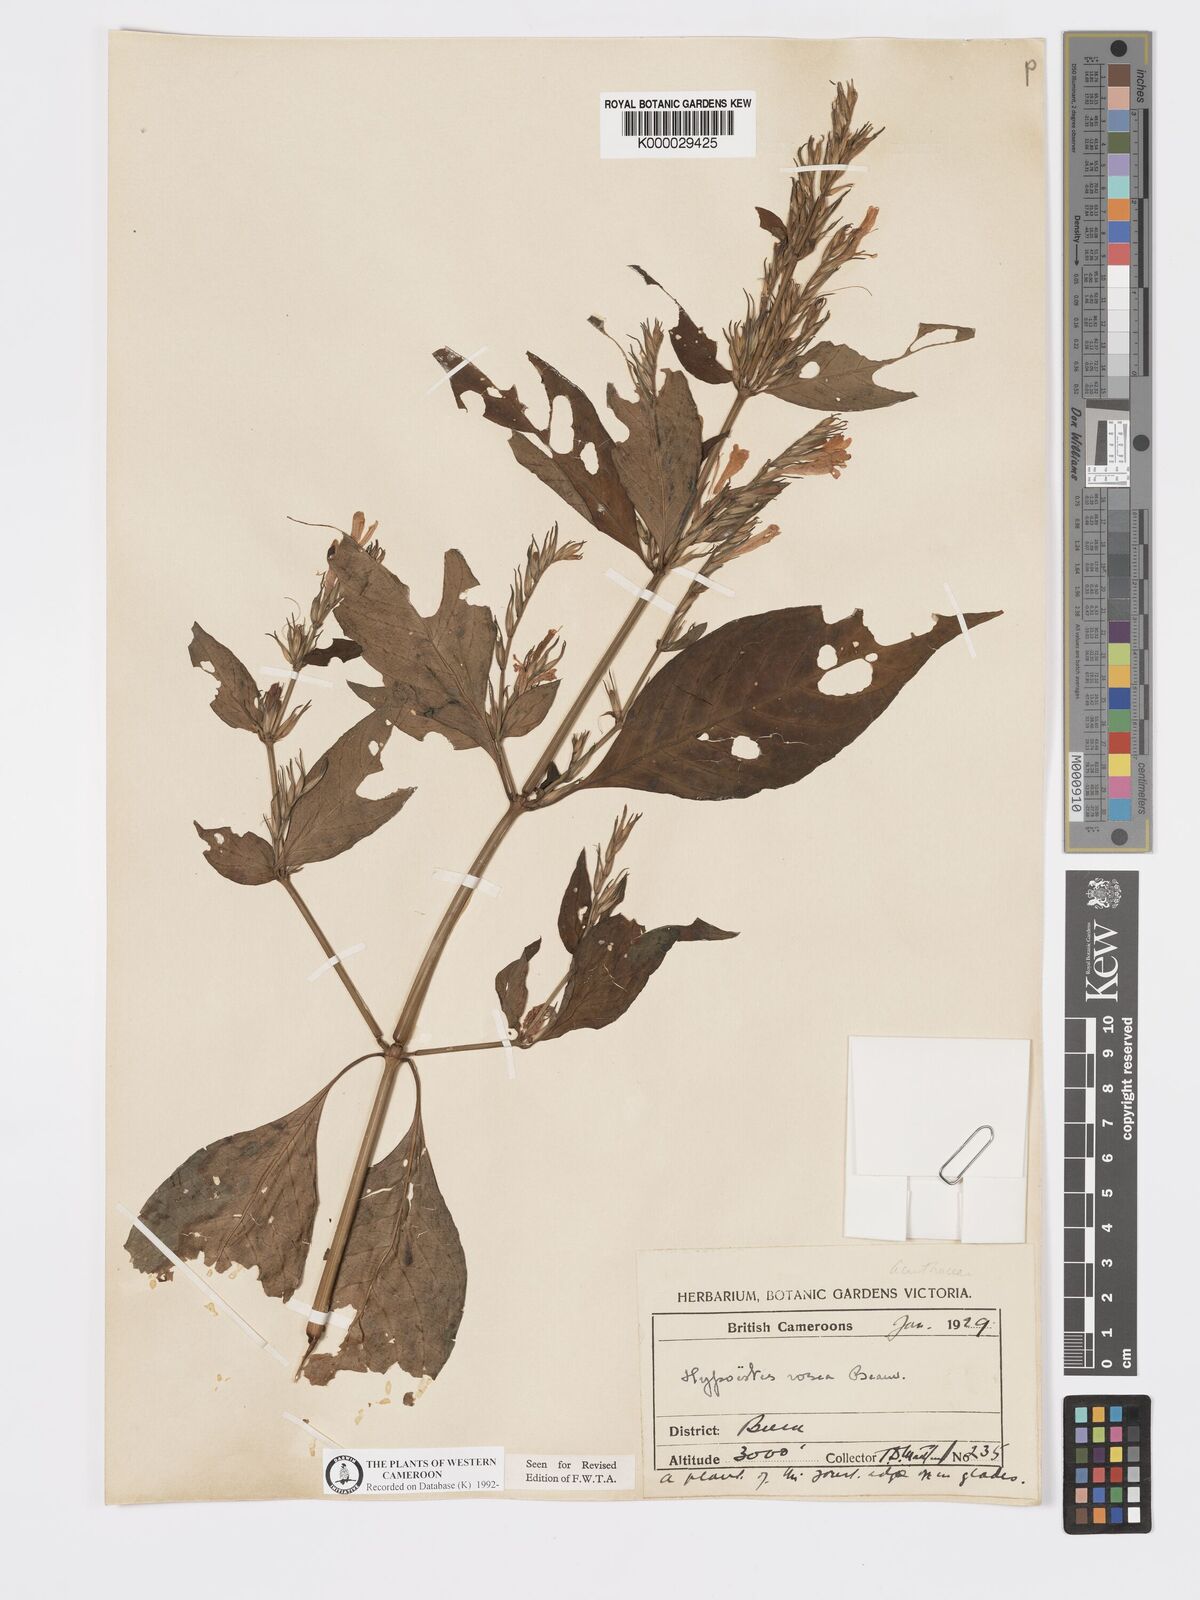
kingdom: Plantae
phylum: Tracheophyta
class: Magnoliopsida
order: Lamiales
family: Acanthaceae
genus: Hypoestes
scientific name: Hypoestes rosea
